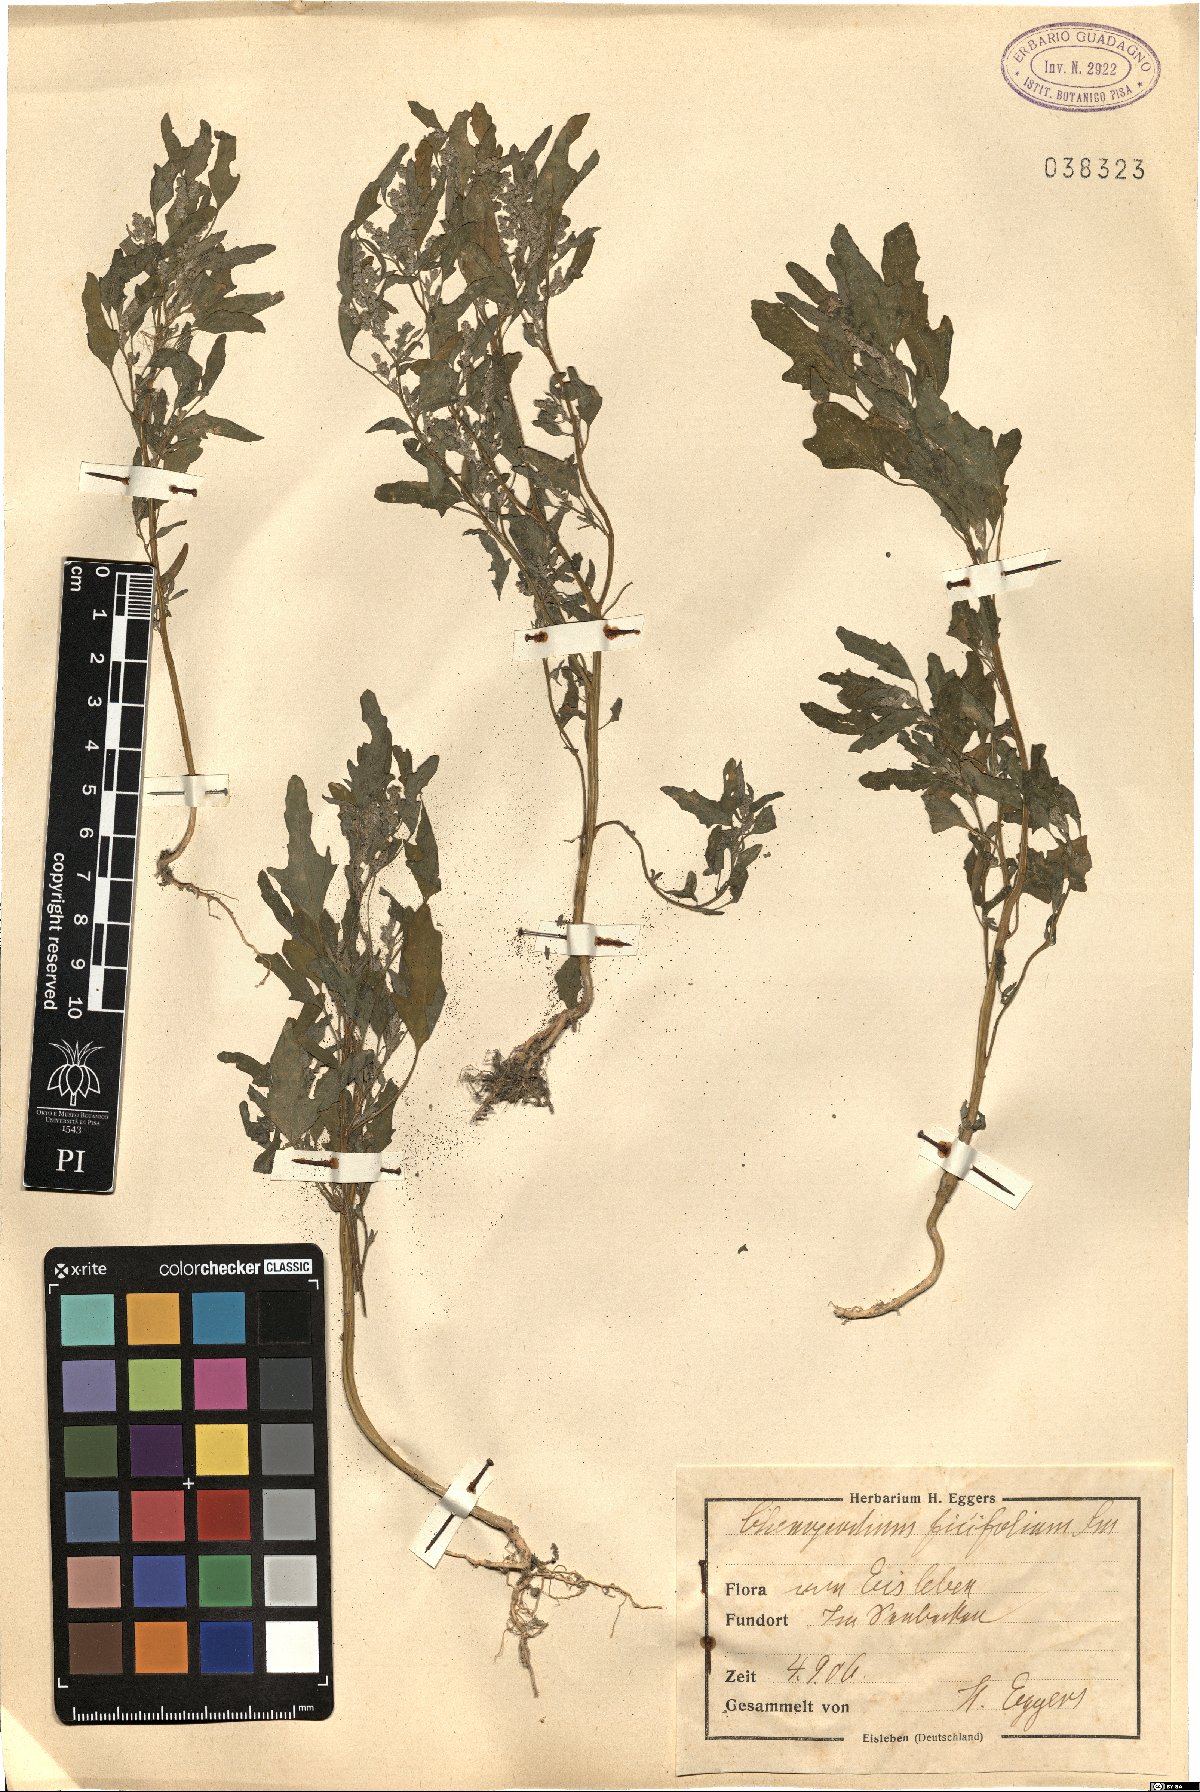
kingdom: Plantae
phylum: Tracheophyta
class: Magnoliopsida
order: Caryophyllales
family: Amaranthaceae
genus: Chenopodium
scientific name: Chenopodium ficifolium
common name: Fig-leaved goosefoot
